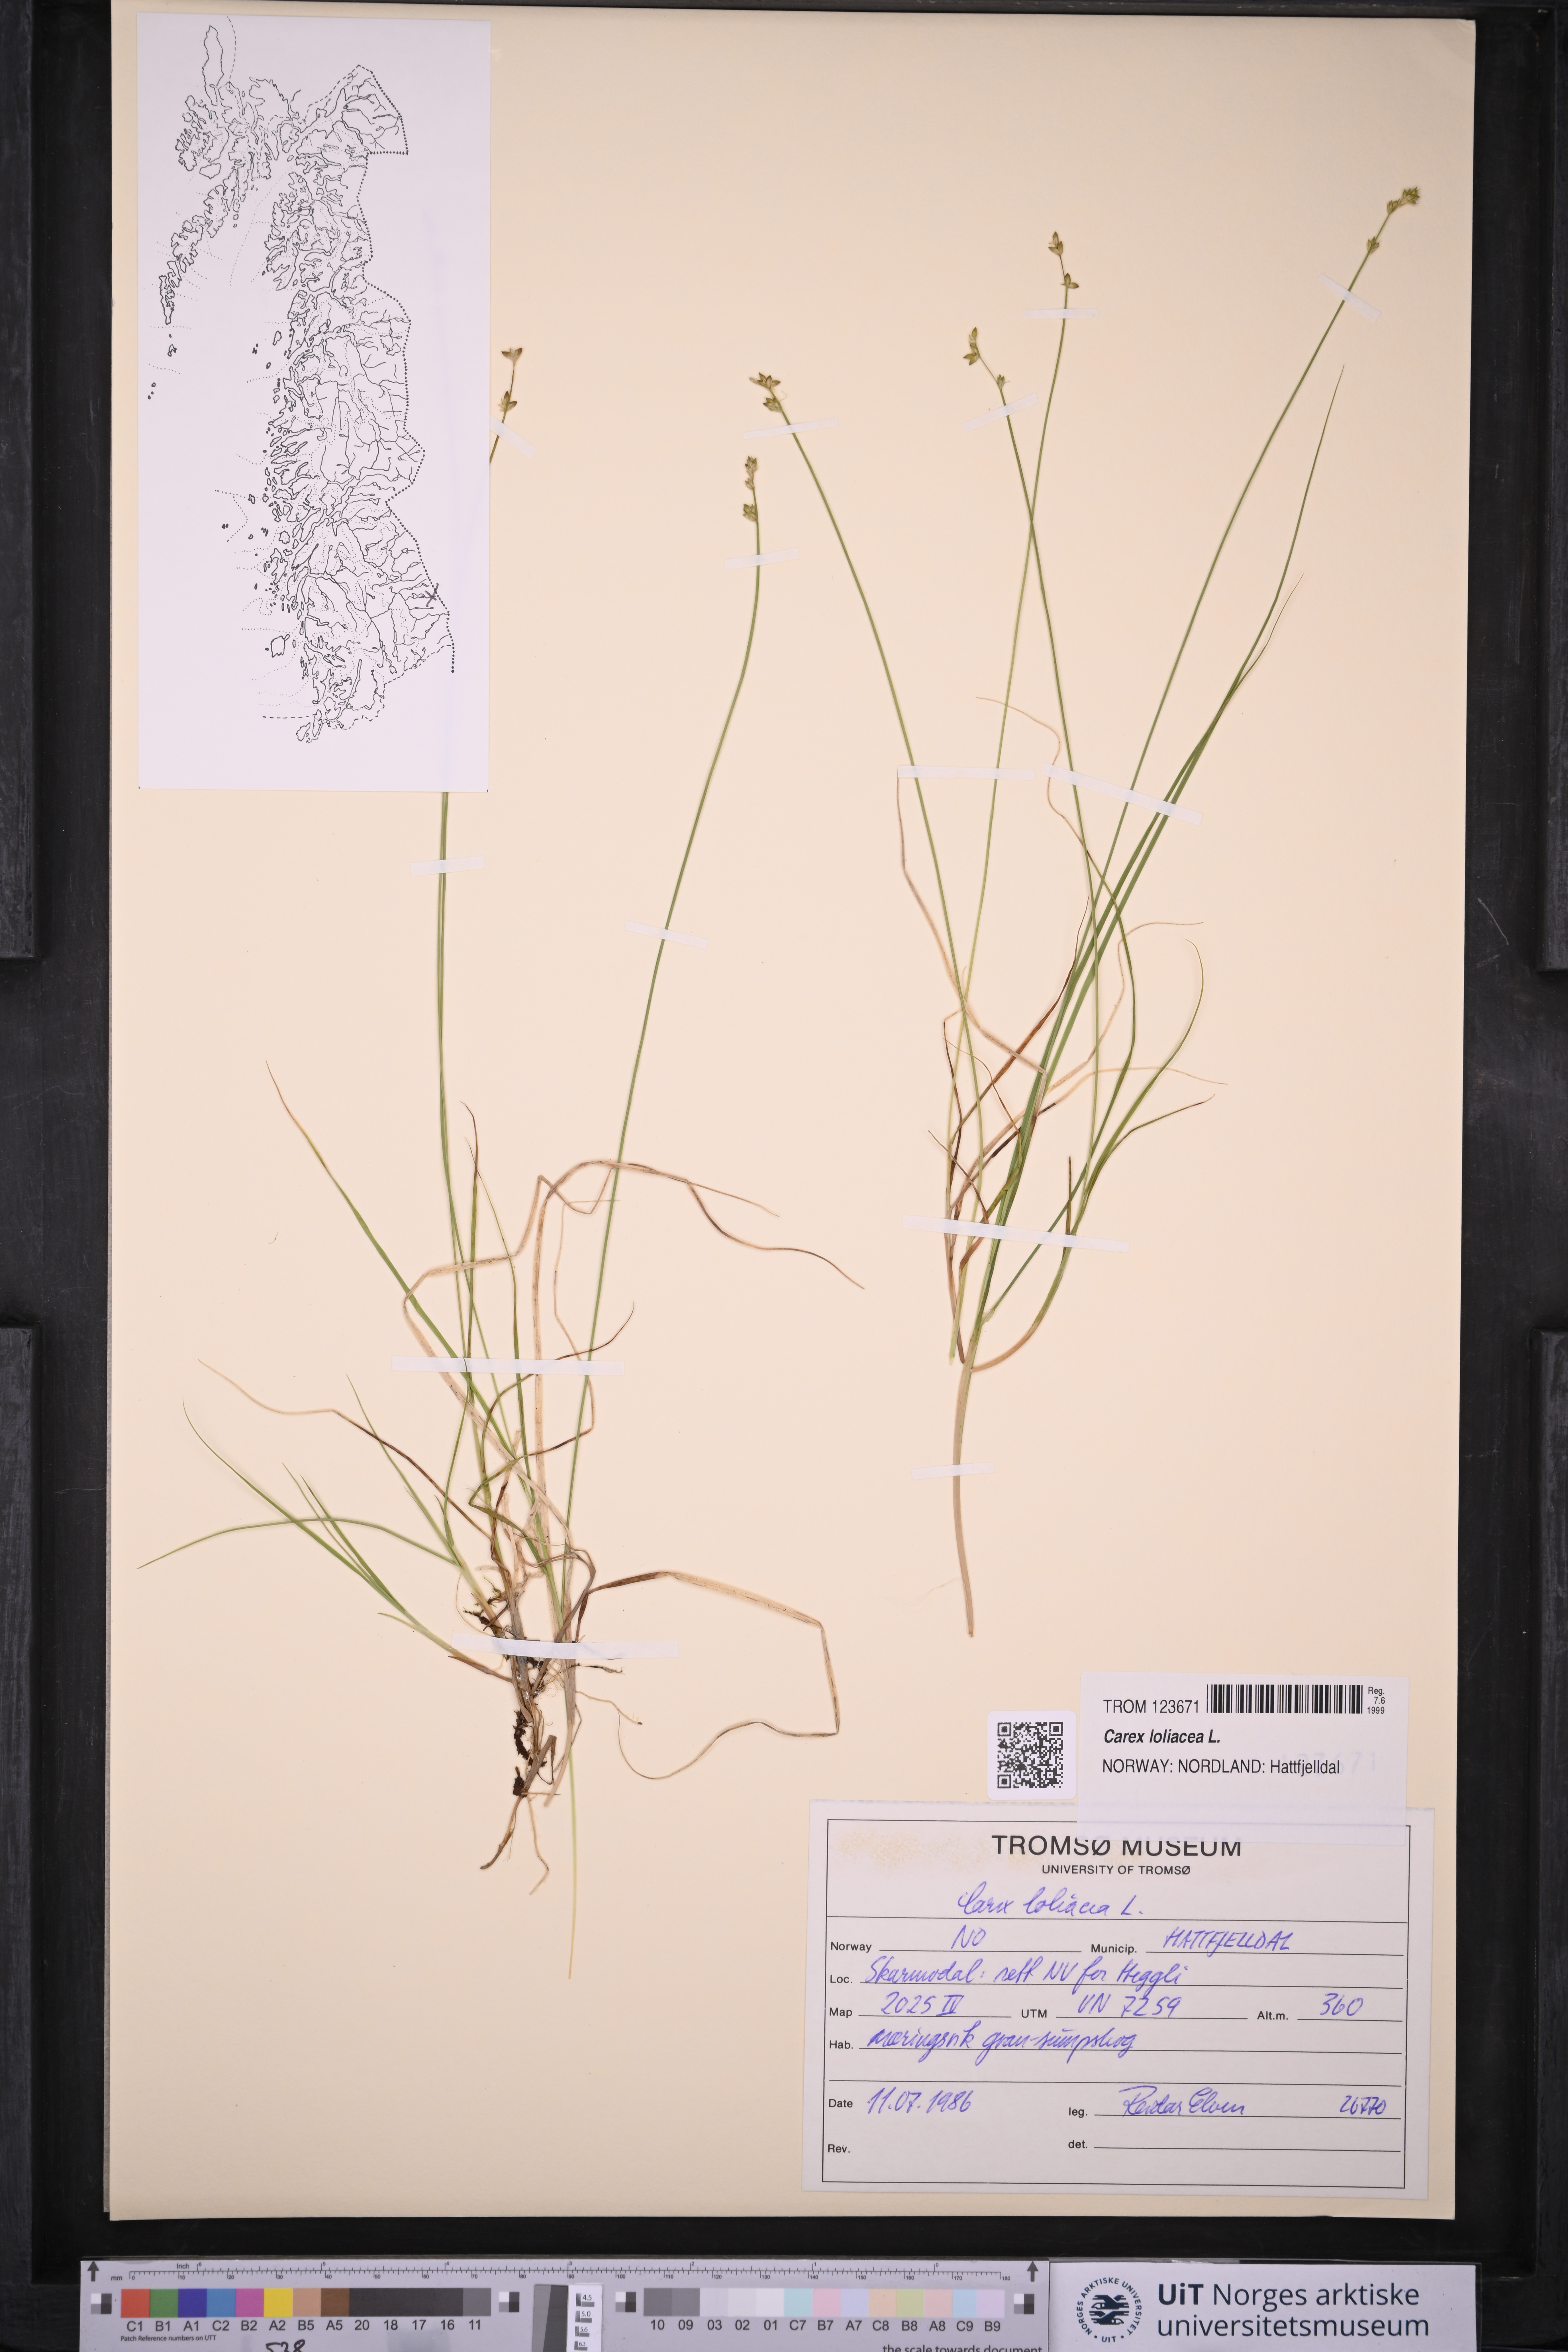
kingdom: Plantae
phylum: Tracheophyta
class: Liliopsida
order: Poales
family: Cyperaceae
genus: Carex
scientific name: Carex loliacea
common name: Ryegrass sedge
